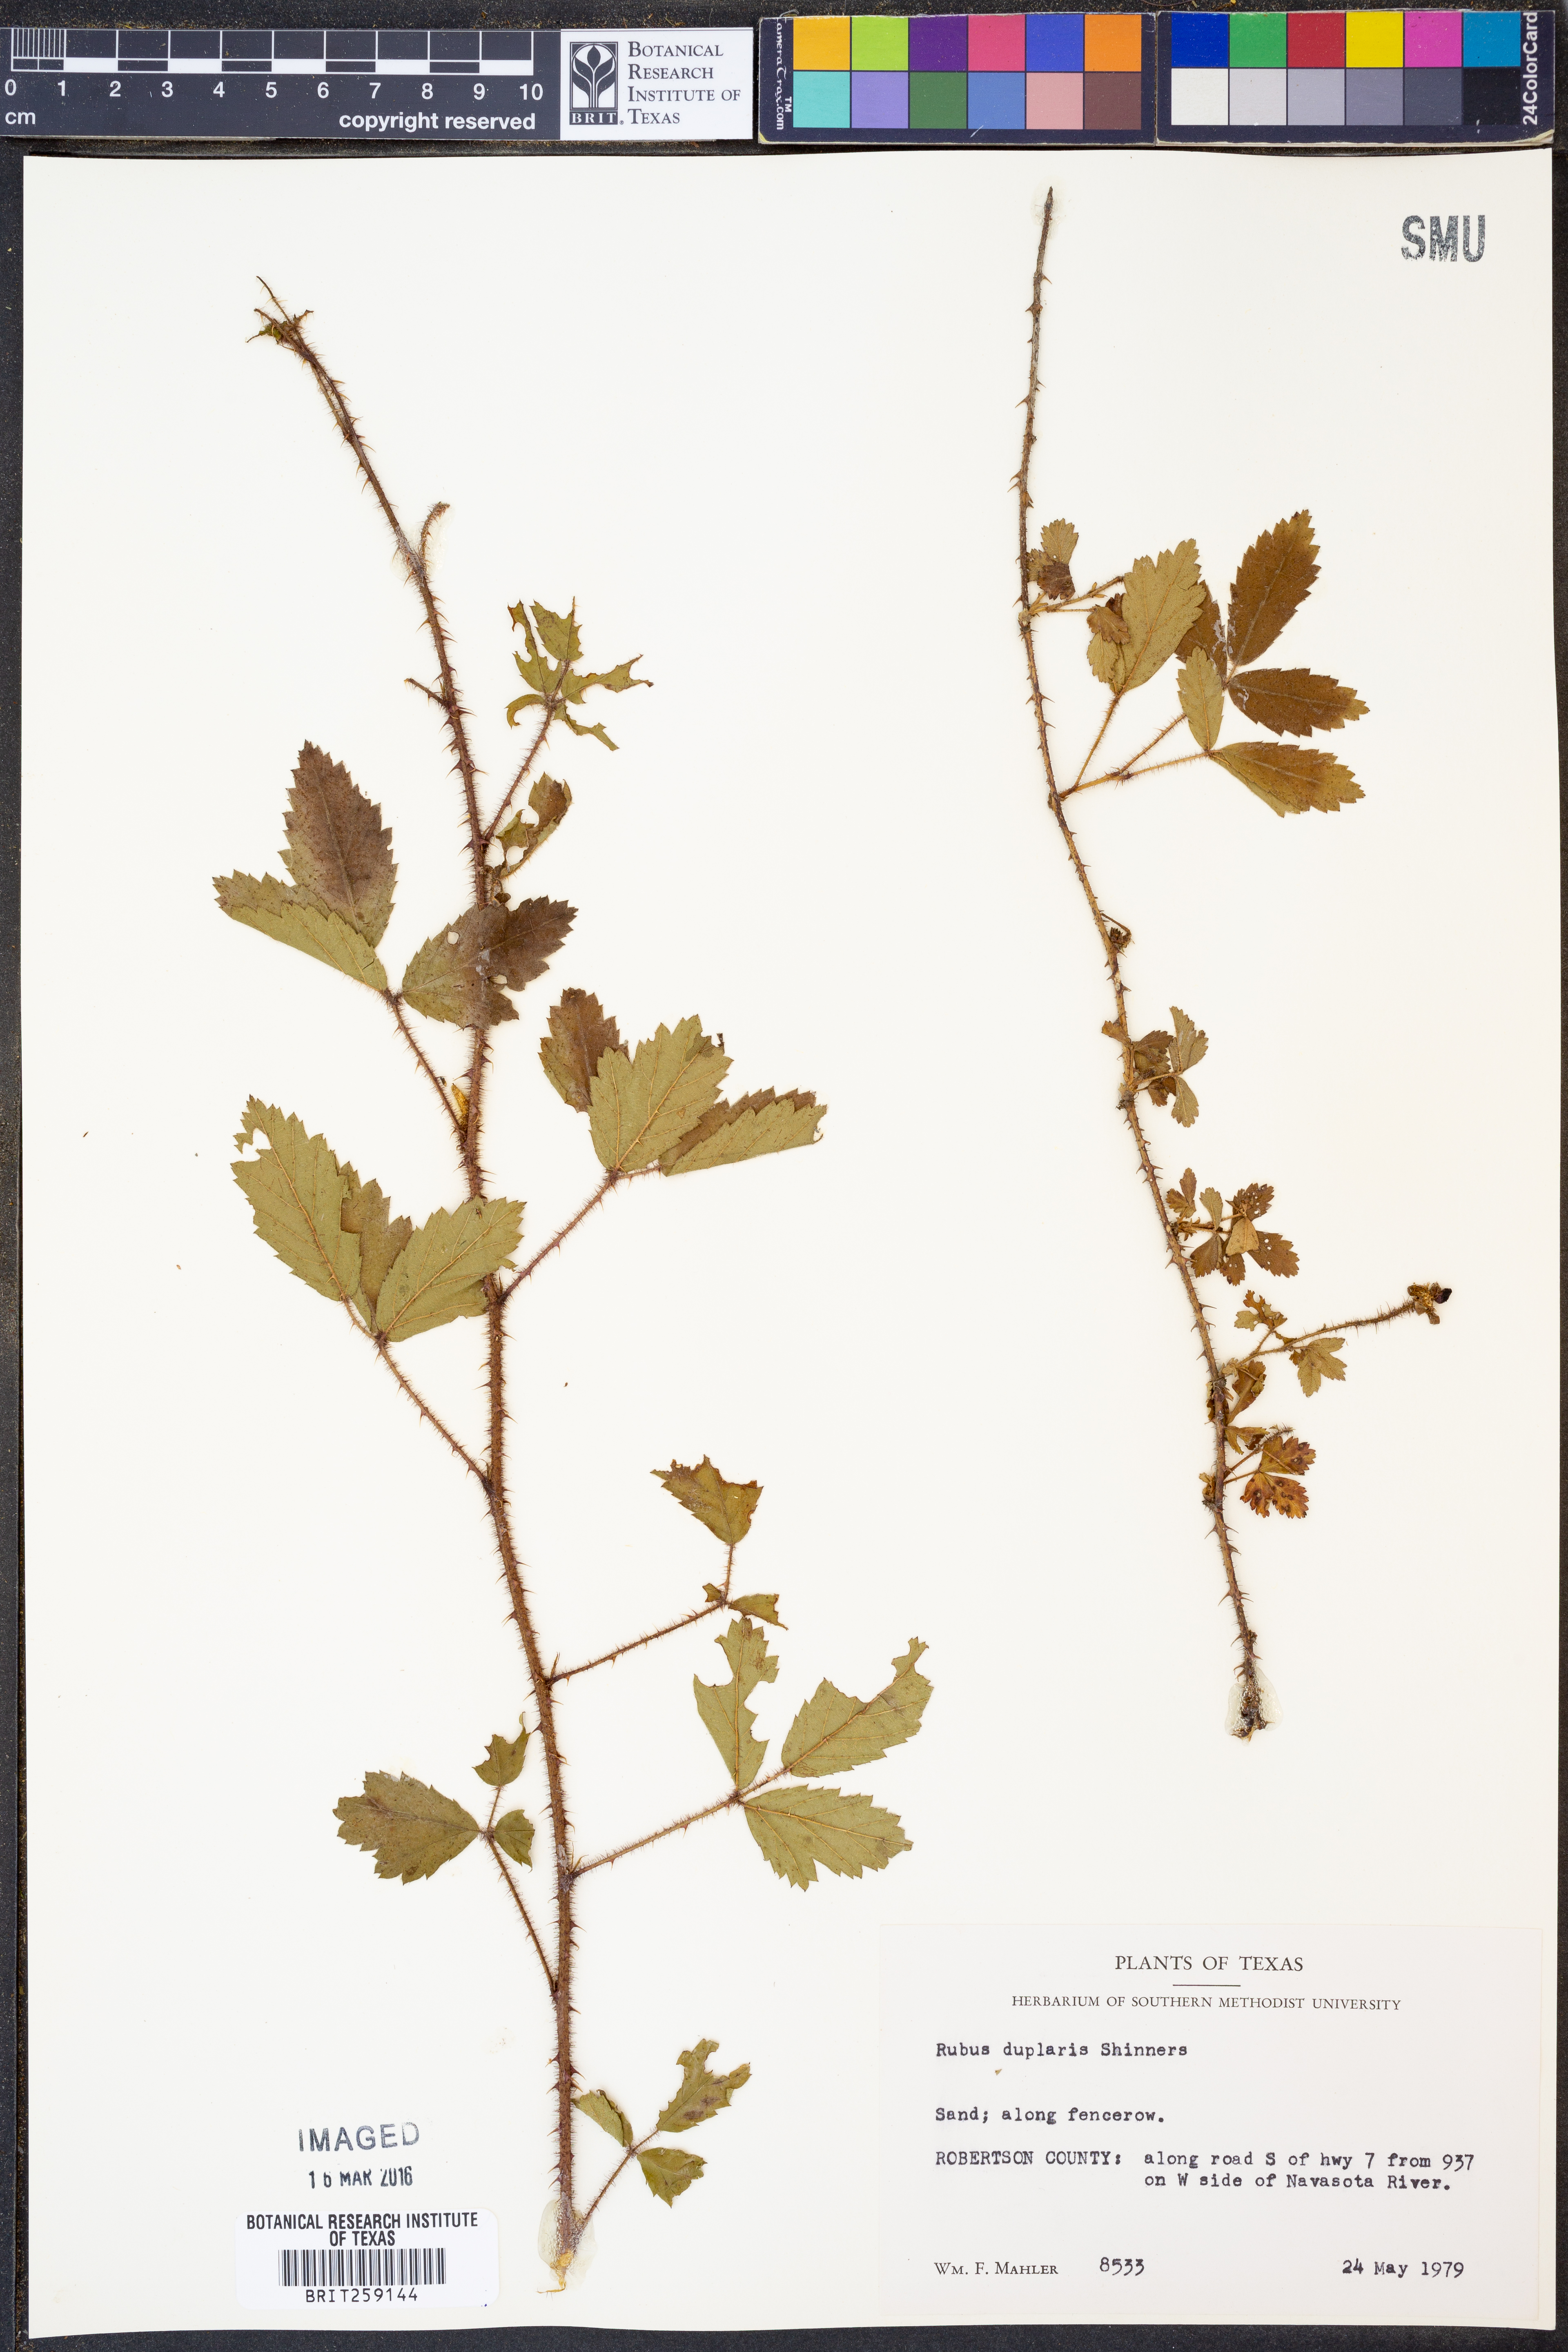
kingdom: Plantae
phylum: Tracheophyta
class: Magnoliopsida
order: Rosales
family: Rosaceae
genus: Rubus
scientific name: Rubus riograndis
